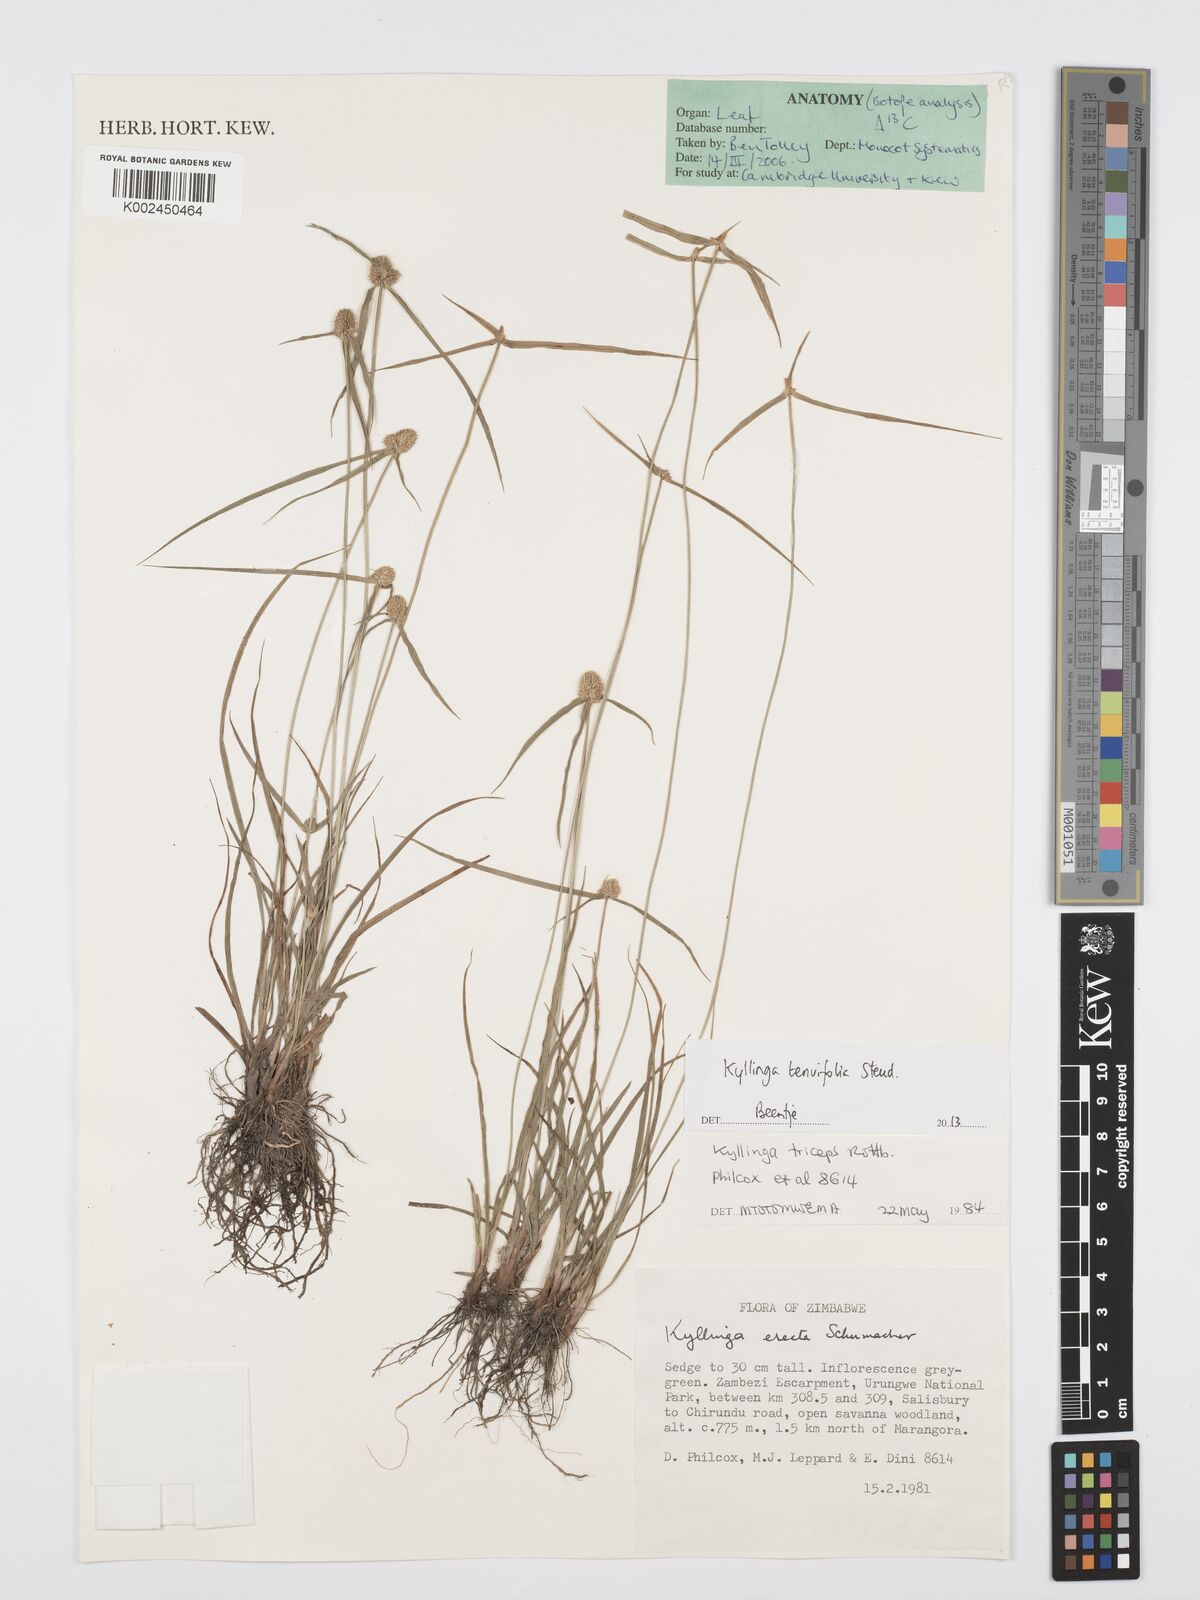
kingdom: Plantae
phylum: Tracheophyta
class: Liliopsida
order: Poales
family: Cyperaceae
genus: Cyperus
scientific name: Cyperus tenuifolius
